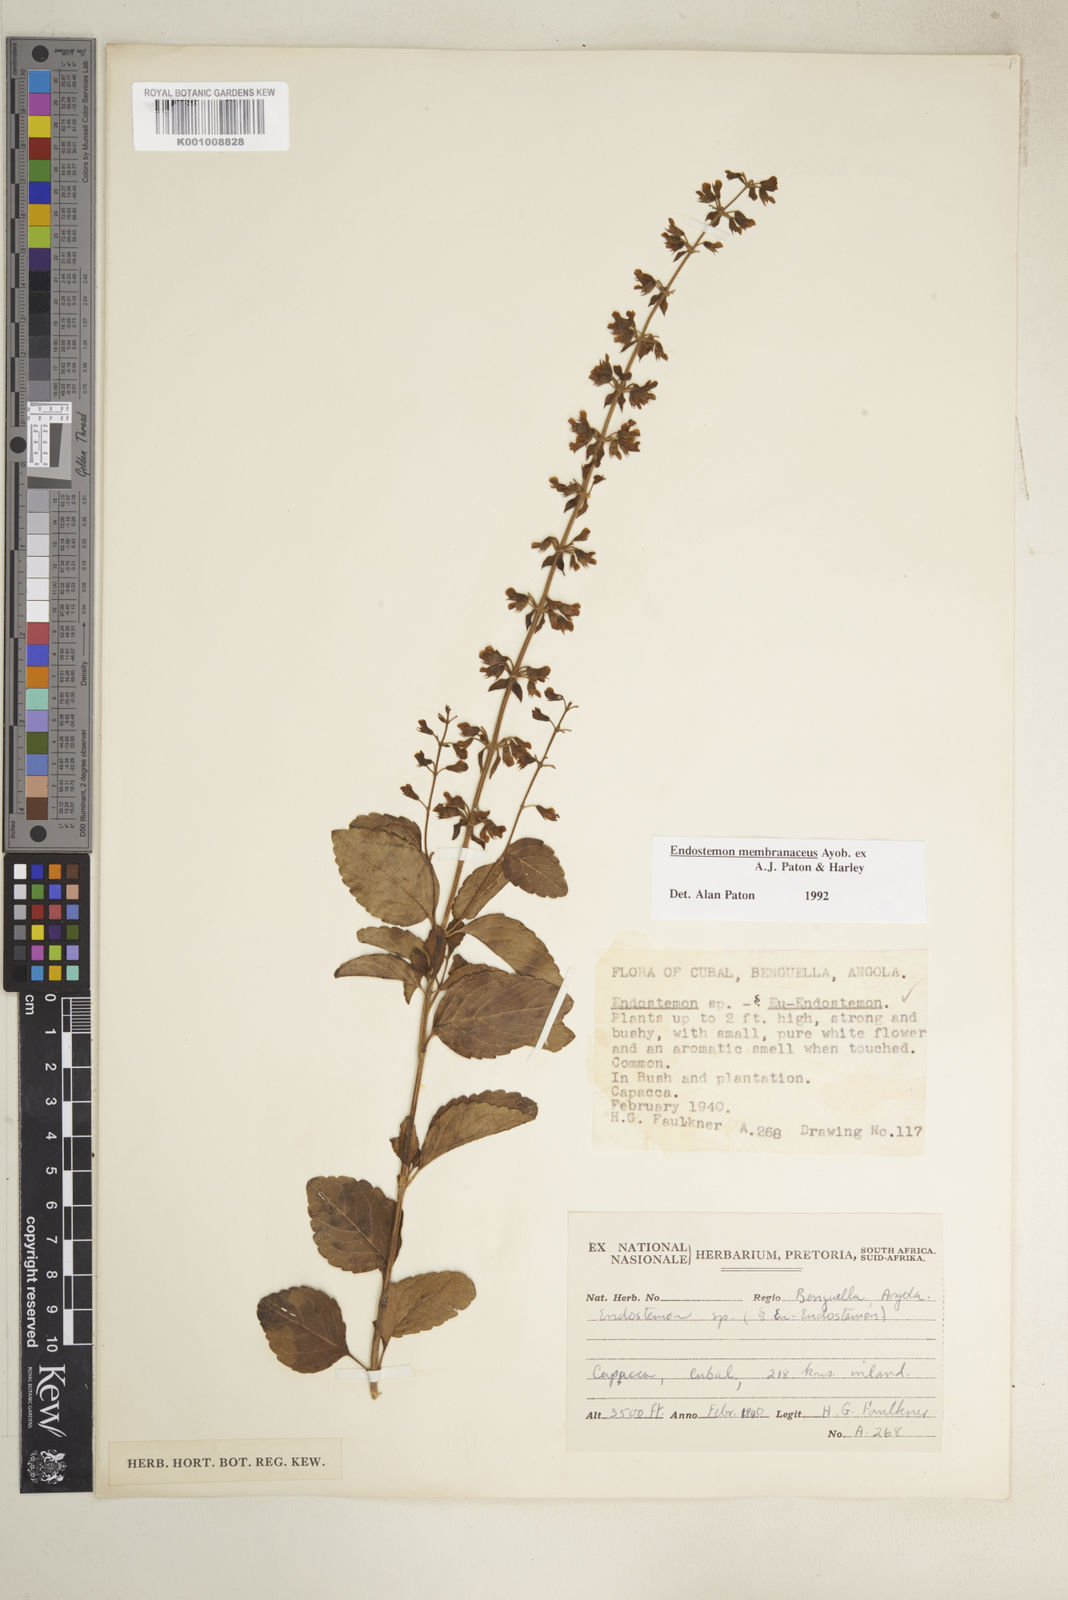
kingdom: Plantae
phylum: Tracheophyta
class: Magnoliopsida
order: Lamiales
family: Lamiaceae
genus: Endostemon
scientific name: Endostemon membranaceus
